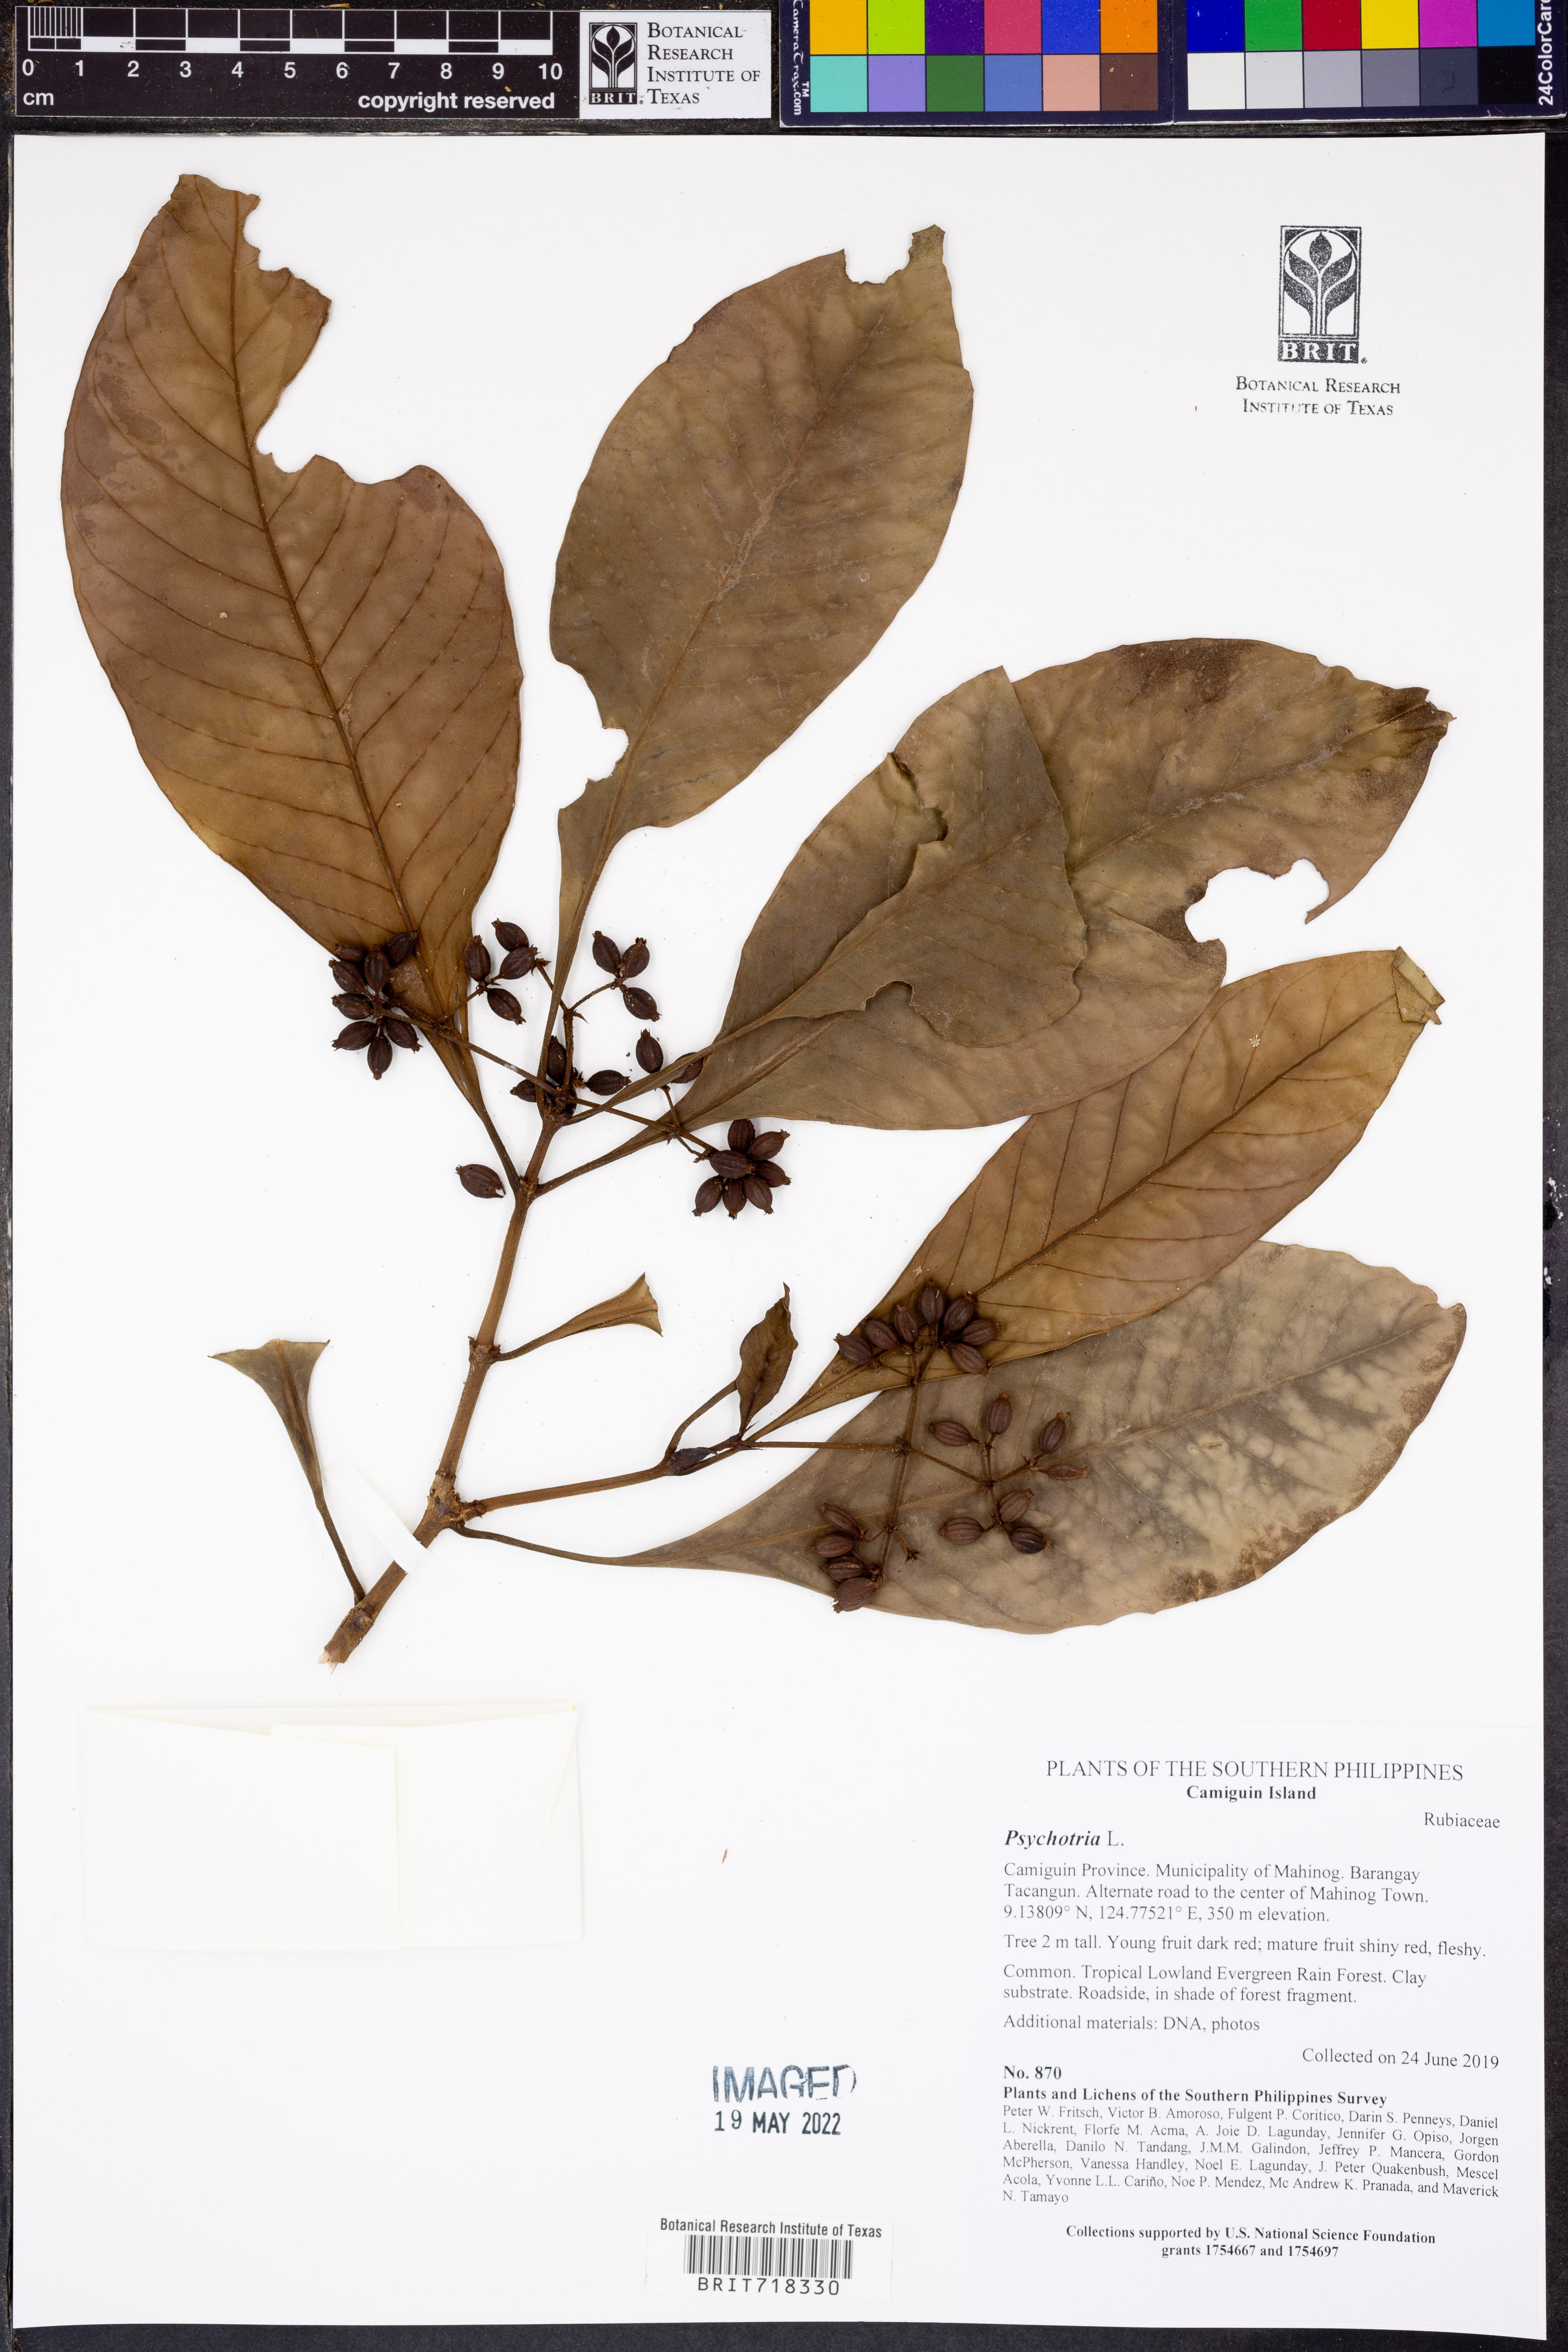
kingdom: Plantae
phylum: Tracheophyta
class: Magnoliopsida
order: Gentianales
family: Rubiaceae
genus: Psychotria
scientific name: Psychotria
